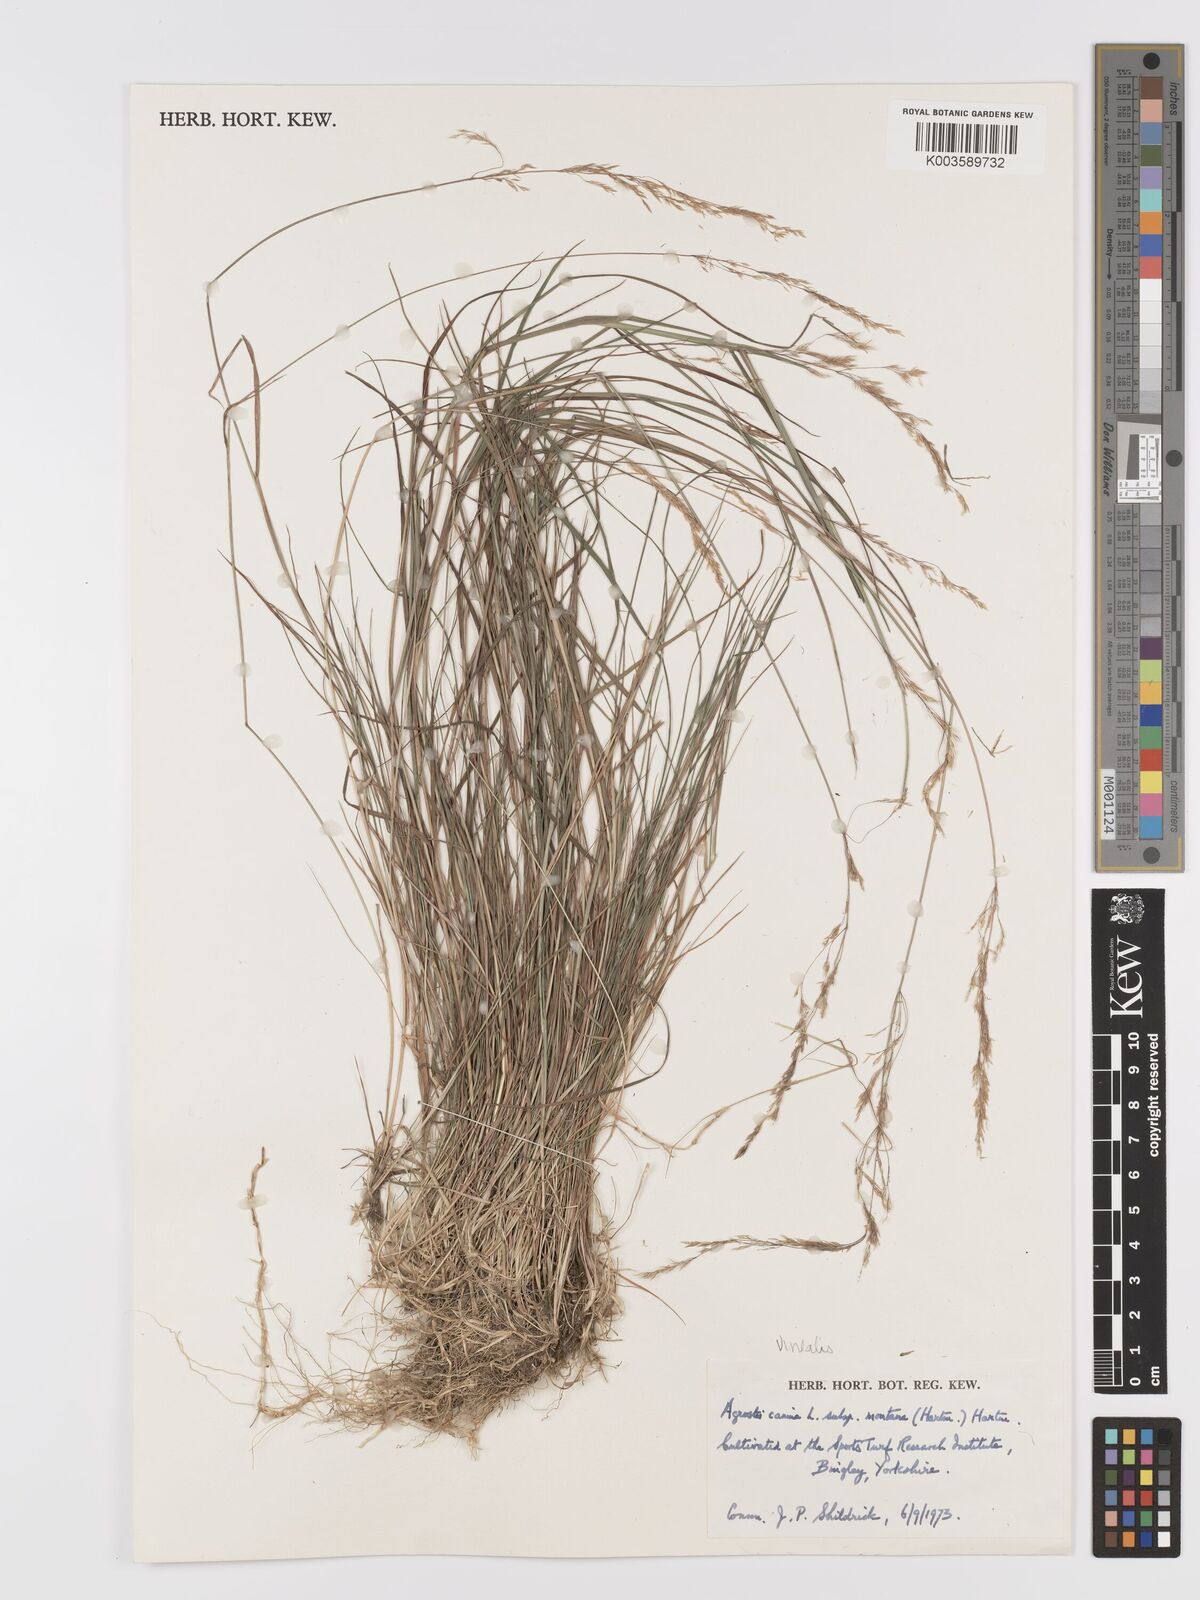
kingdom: Plantae
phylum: Tracheophyta
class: Liliopsida
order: Poales
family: Poaceae
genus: Agrostis
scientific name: Agrostis
